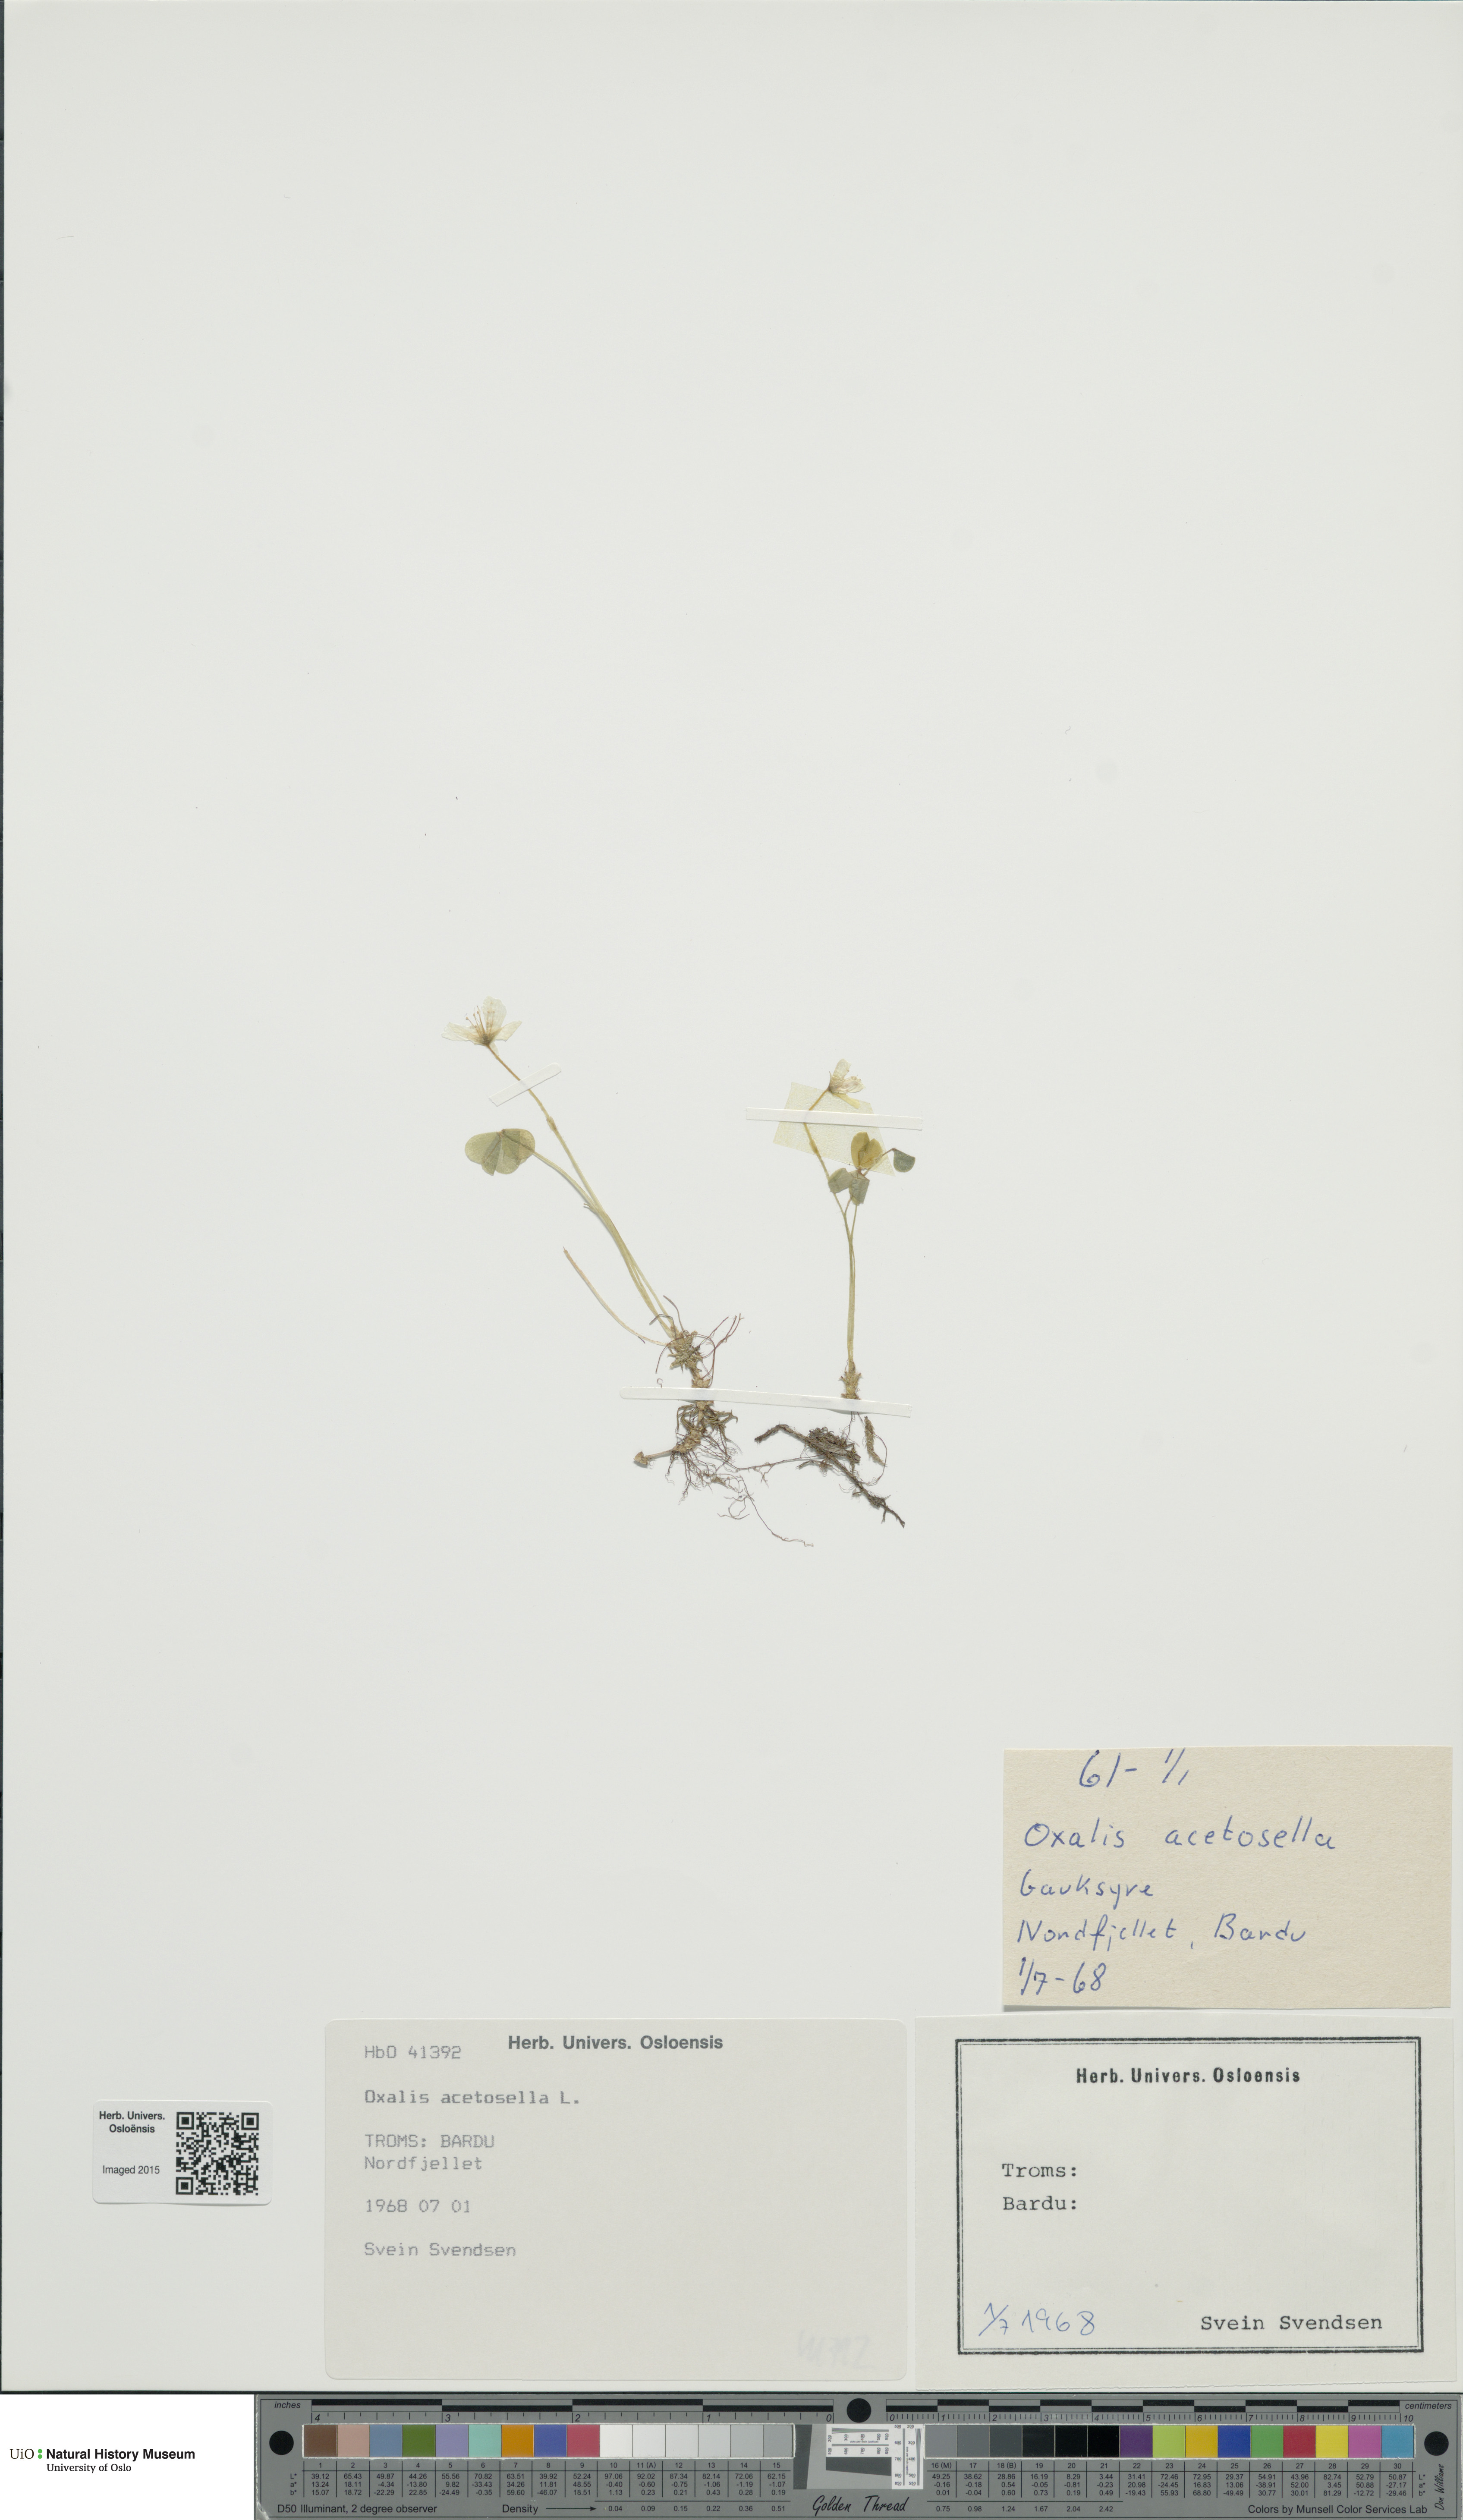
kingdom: Plantae
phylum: Tracheophyta
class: Magnoliopsida
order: Oxalidales
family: Oxalidaceae
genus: Oxalis
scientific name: Oxalis acetosella
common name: Wood-sorrel
